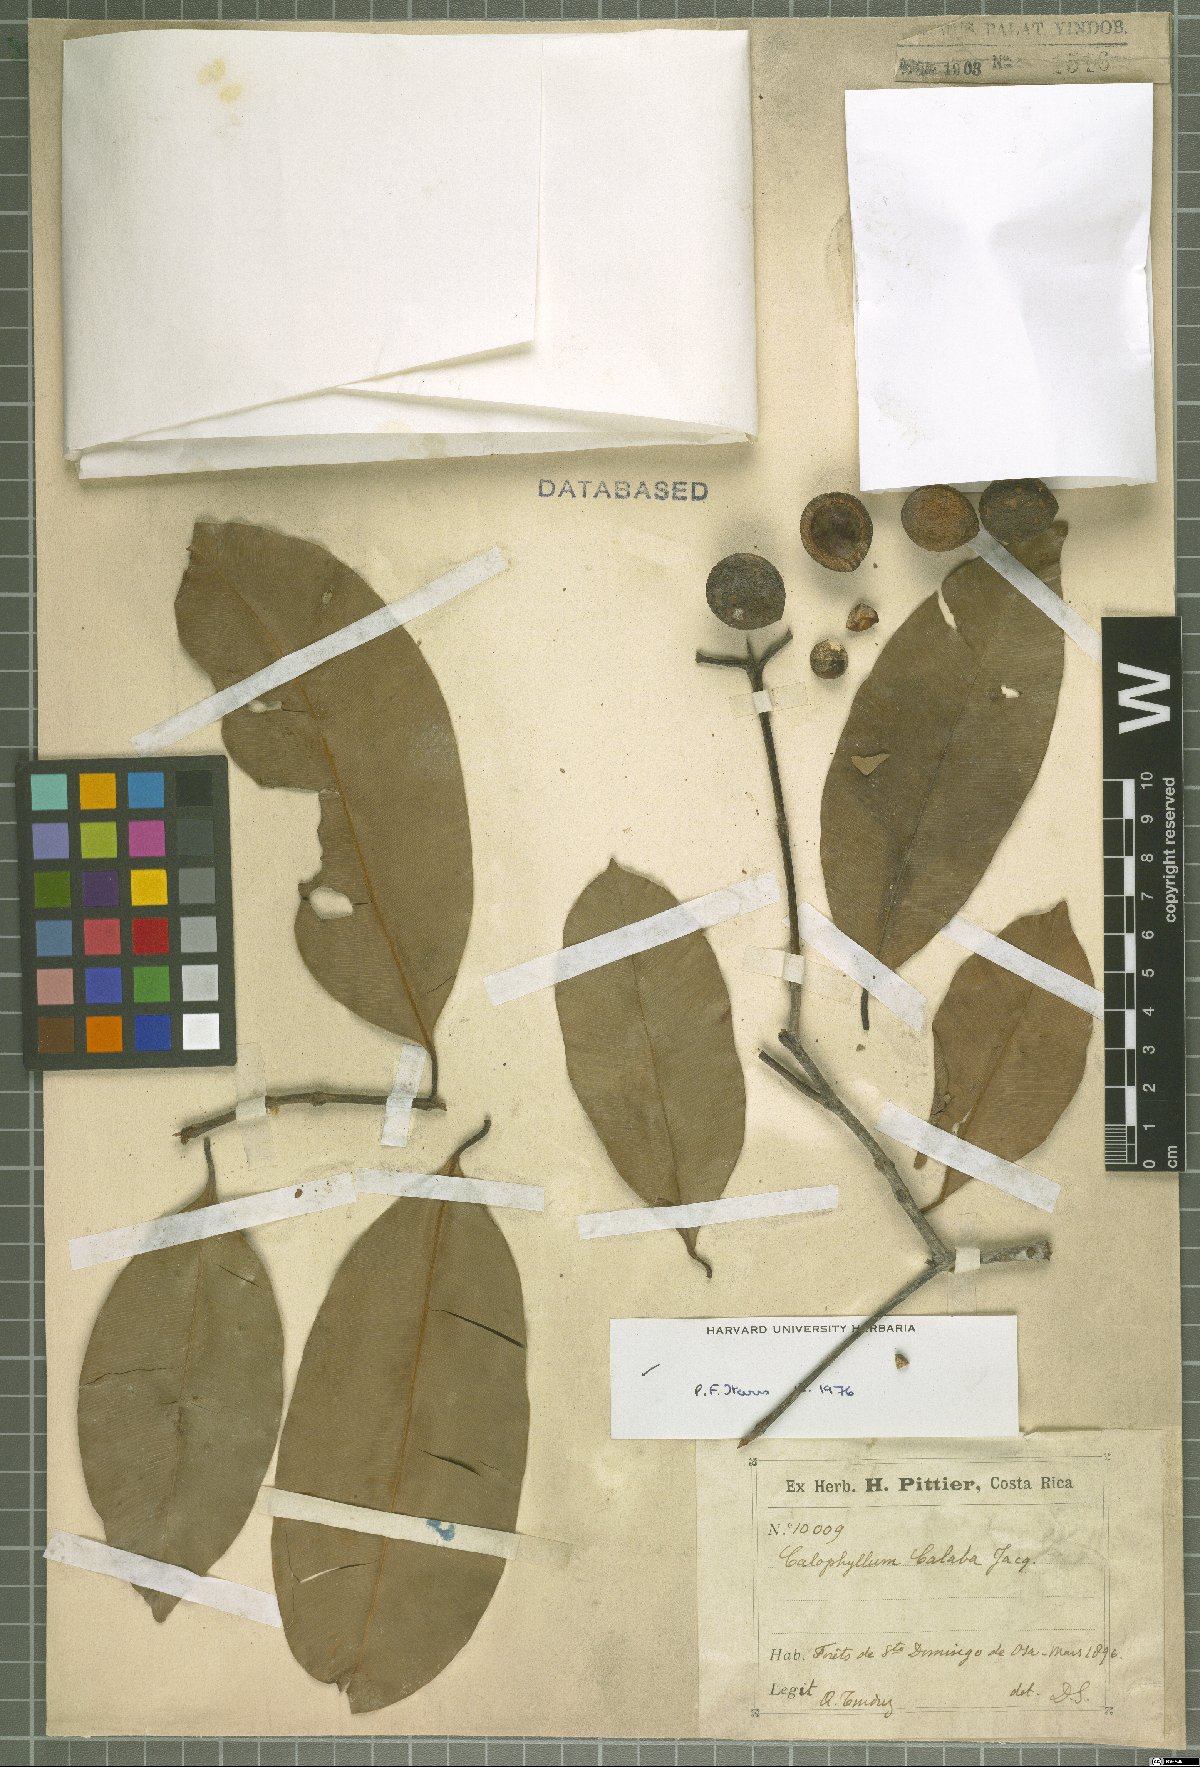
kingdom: Plantae
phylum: Tracheophyta
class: Magnoliopsida
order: Malpighiales
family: Calophyllaceae
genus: Calophyllum
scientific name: Calophyllum calaba
